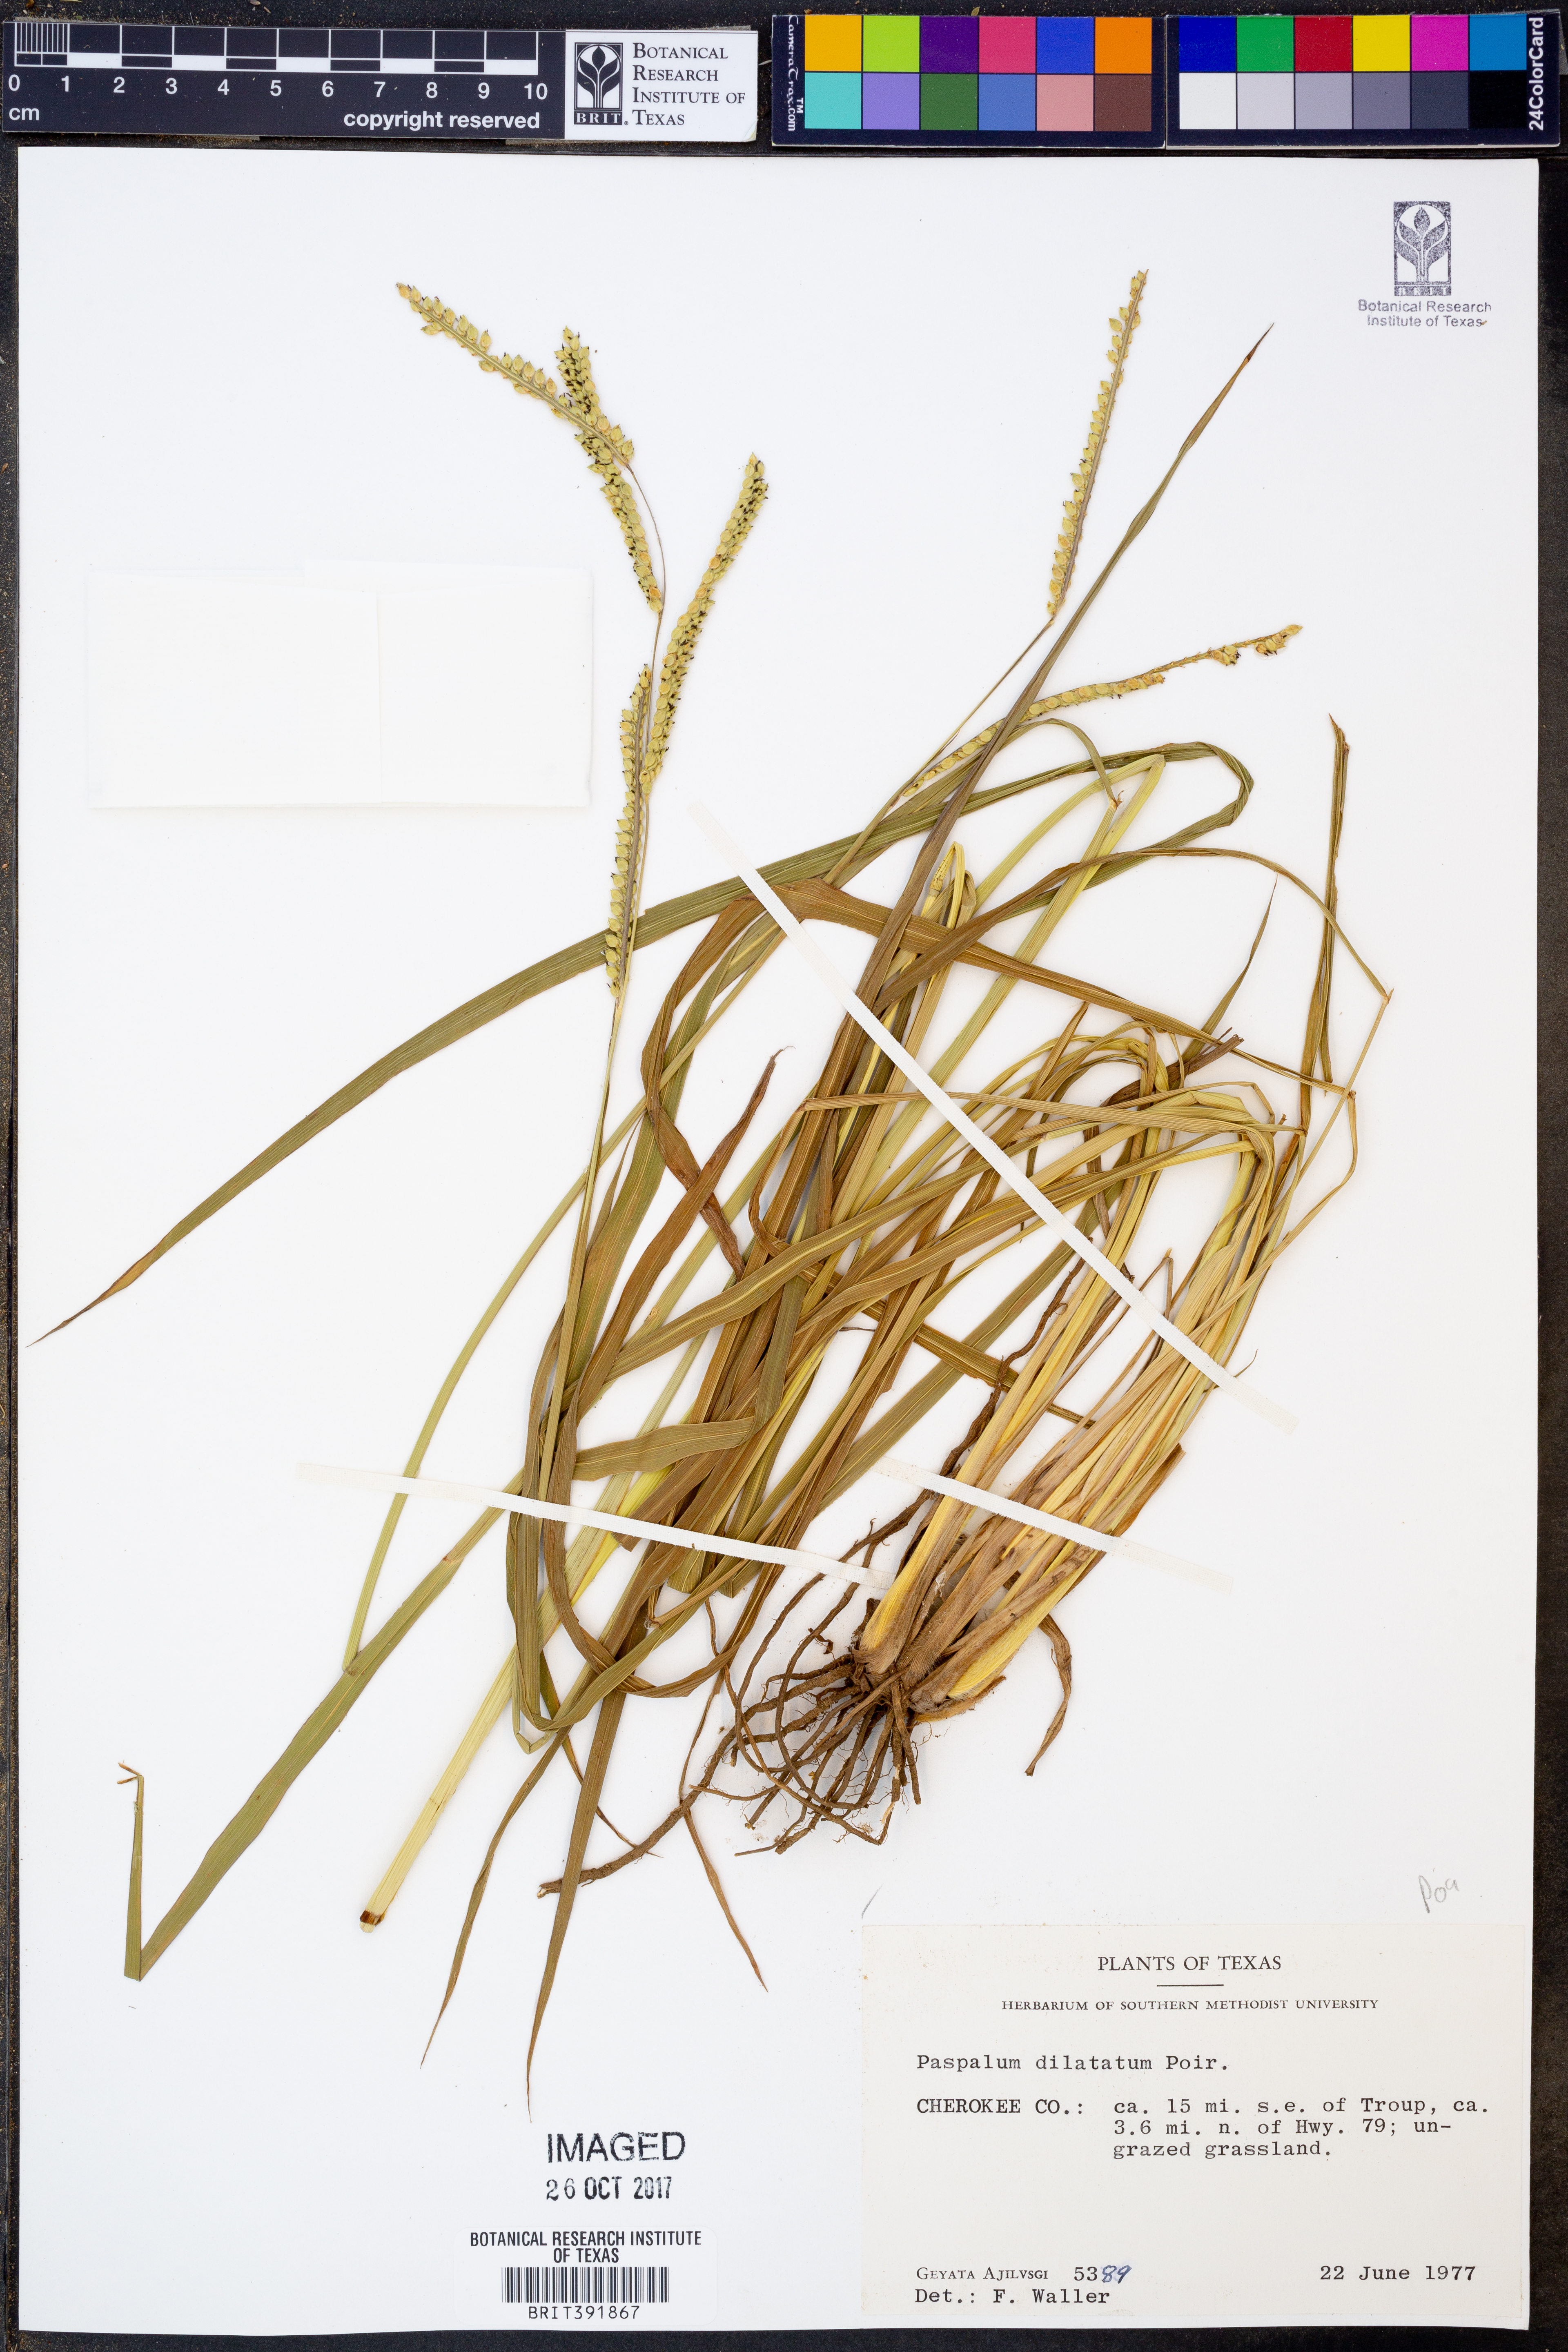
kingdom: Plantae
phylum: Tracheophyta
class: Liliopsida
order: Poales
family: Poaceae
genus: Paspalum
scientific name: Paspalum dilatatum
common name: Dallisgrass
